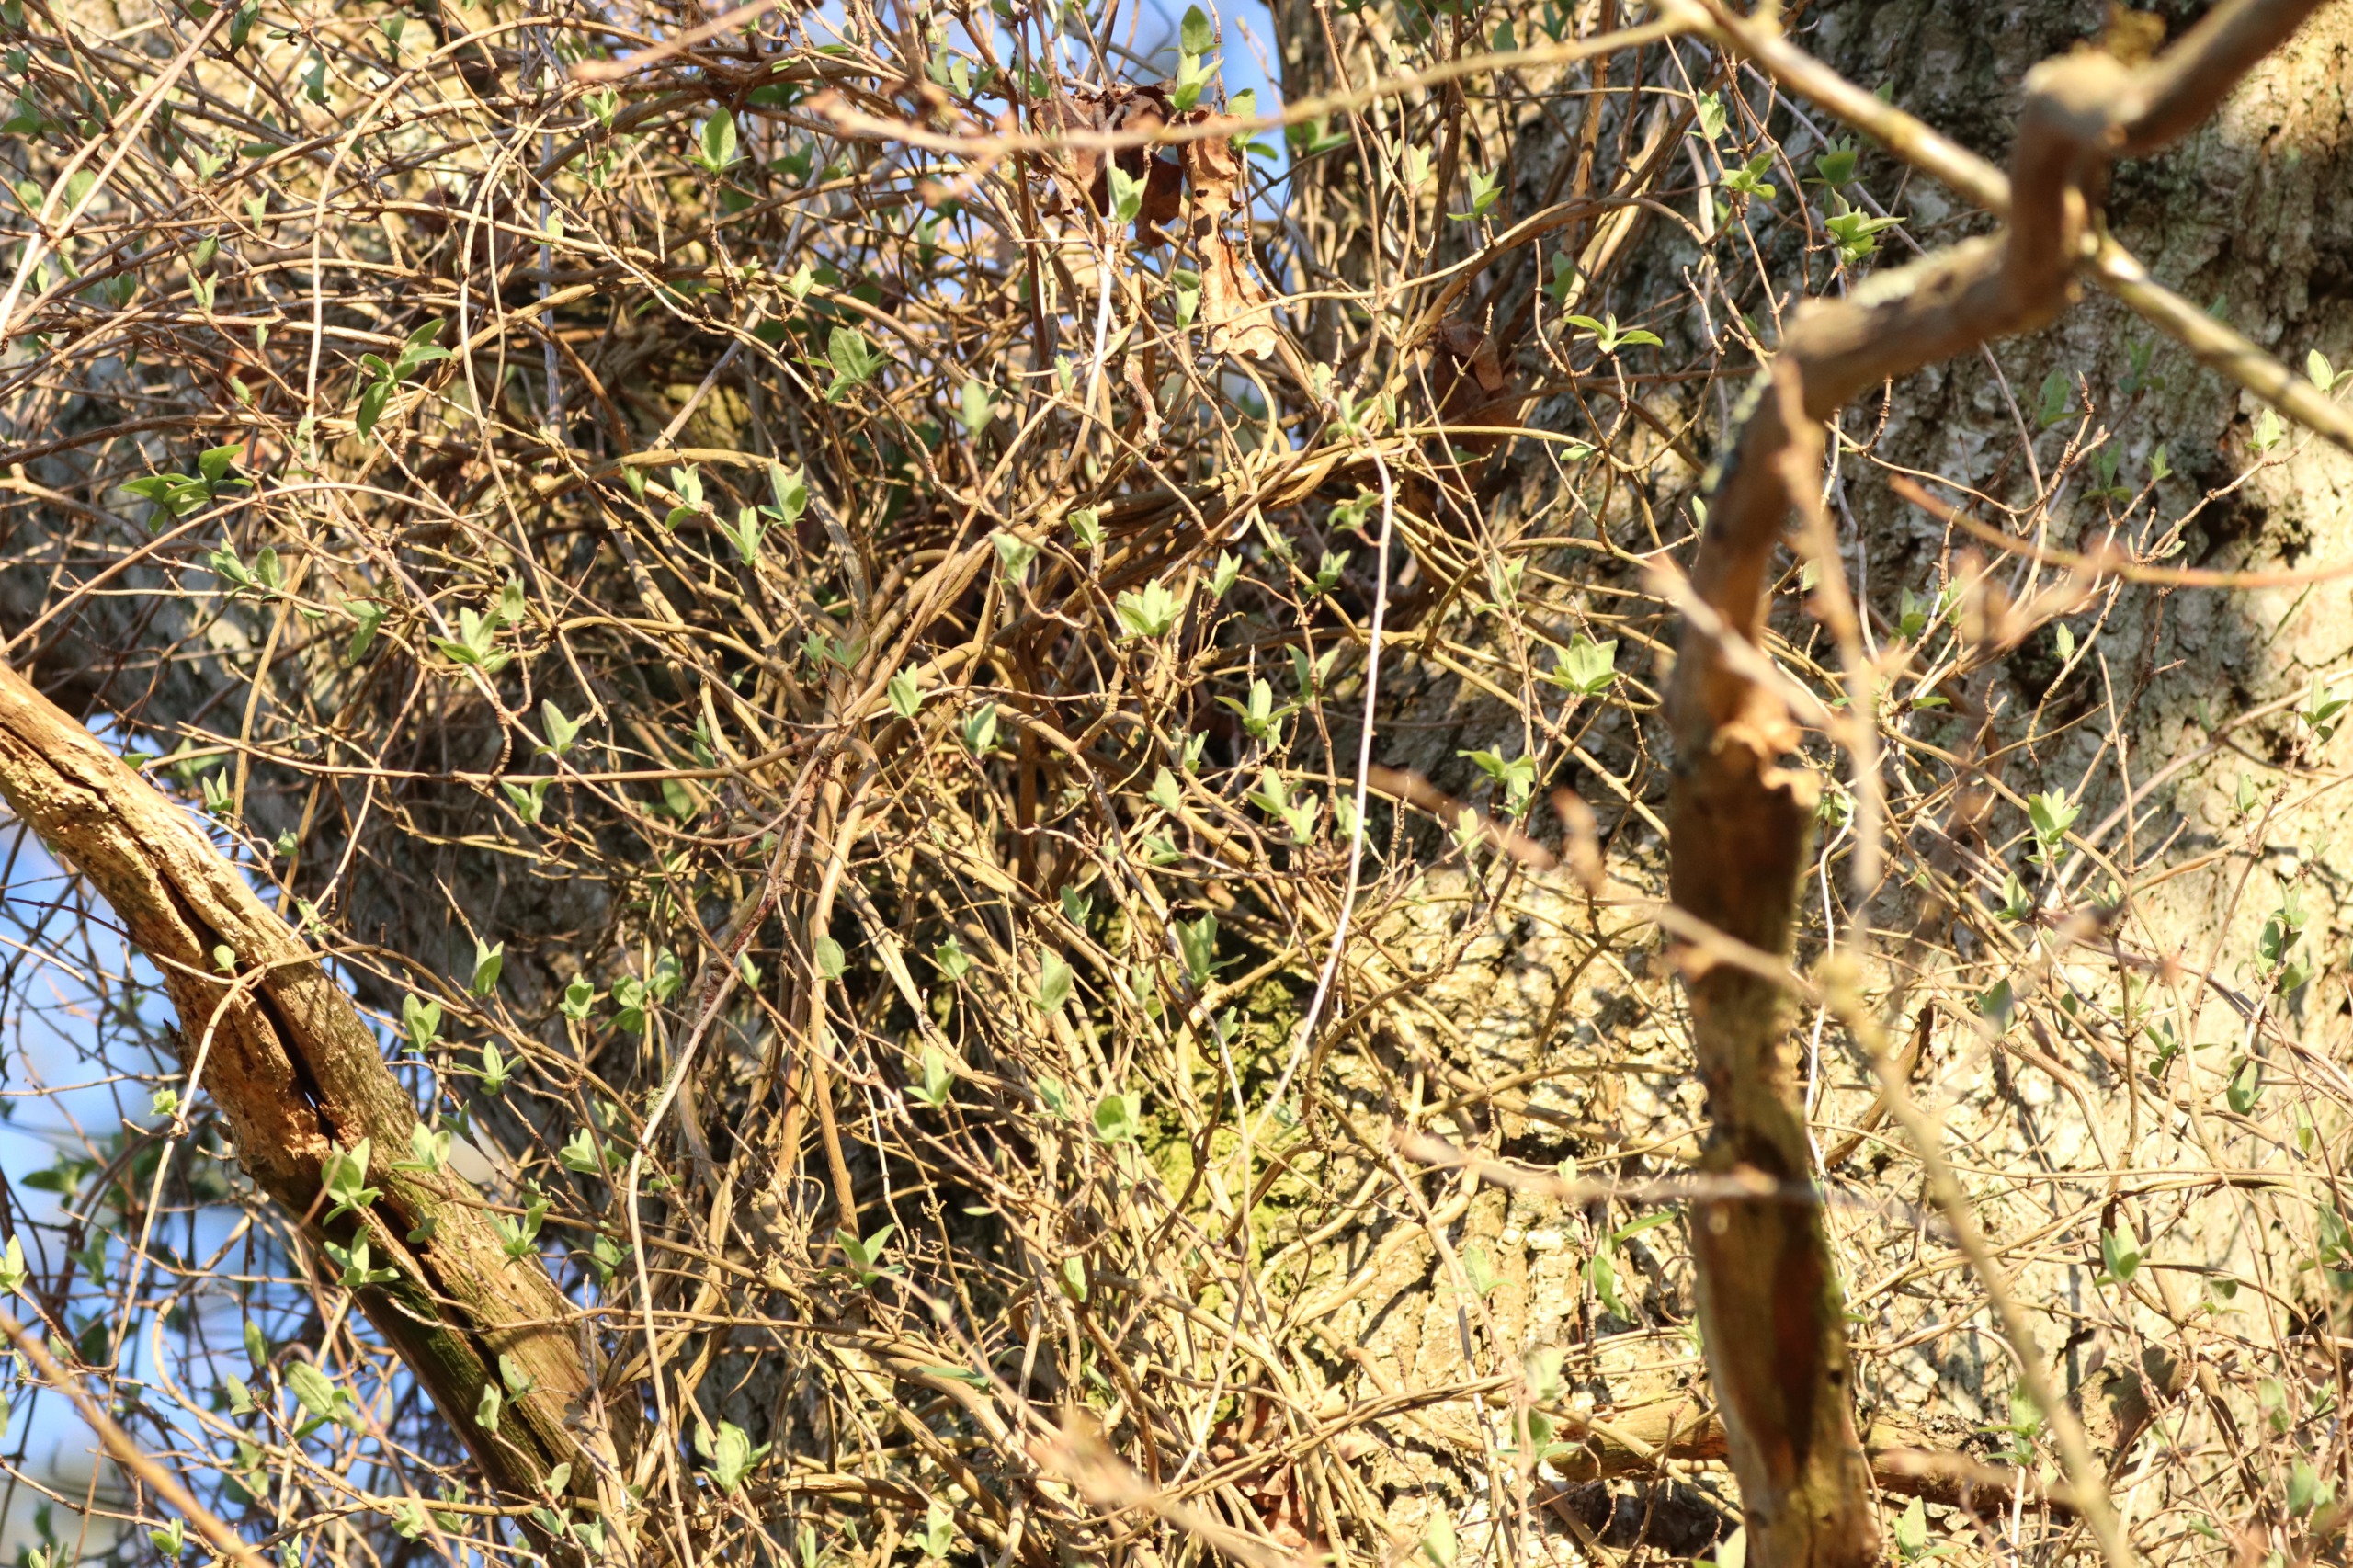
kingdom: Plantae
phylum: Tracheophyta
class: Magnoliopsida
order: Dipsacales
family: Caprifoliaceae
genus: Lonicera
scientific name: Lonicera periclymenum
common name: Almindelig gedeblad
